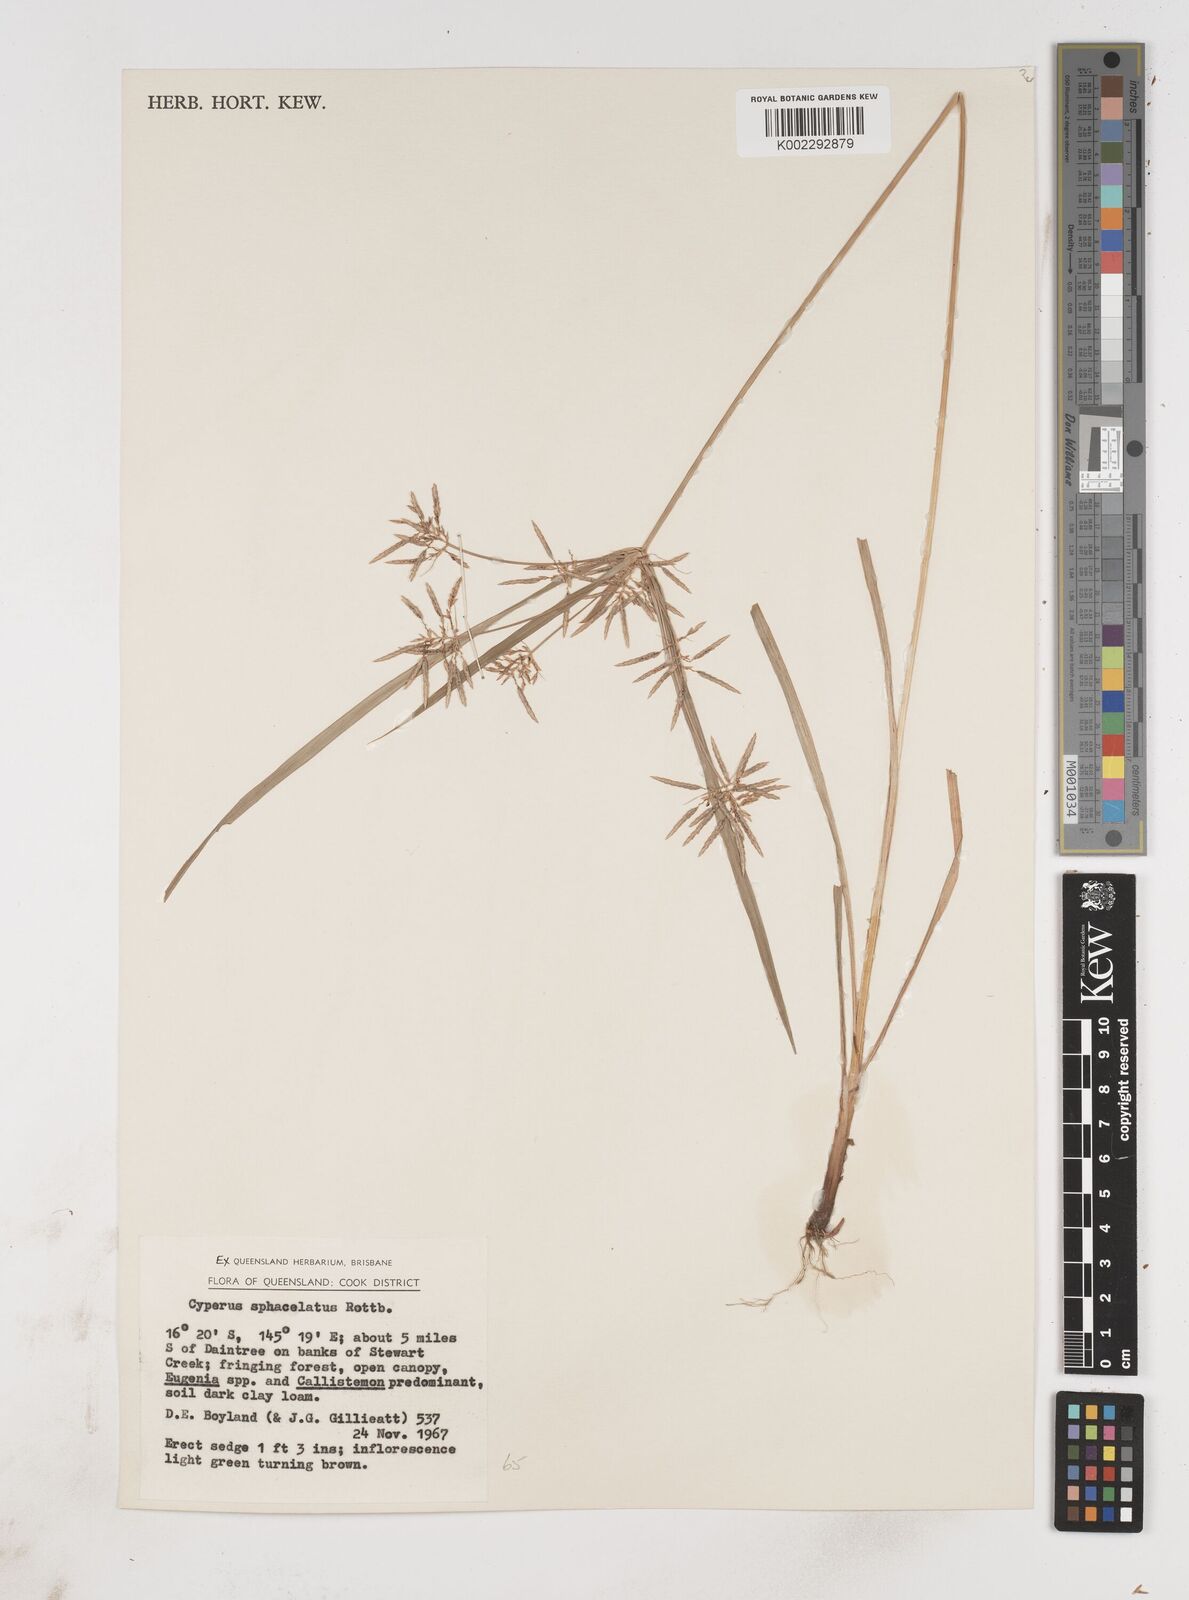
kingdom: Plantae
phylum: Tracheophyta
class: Liliopsida
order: Poales
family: Cyperaceae
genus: Cyperus
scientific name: Cyperus sphacelatus
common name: Roadside flatsedge
